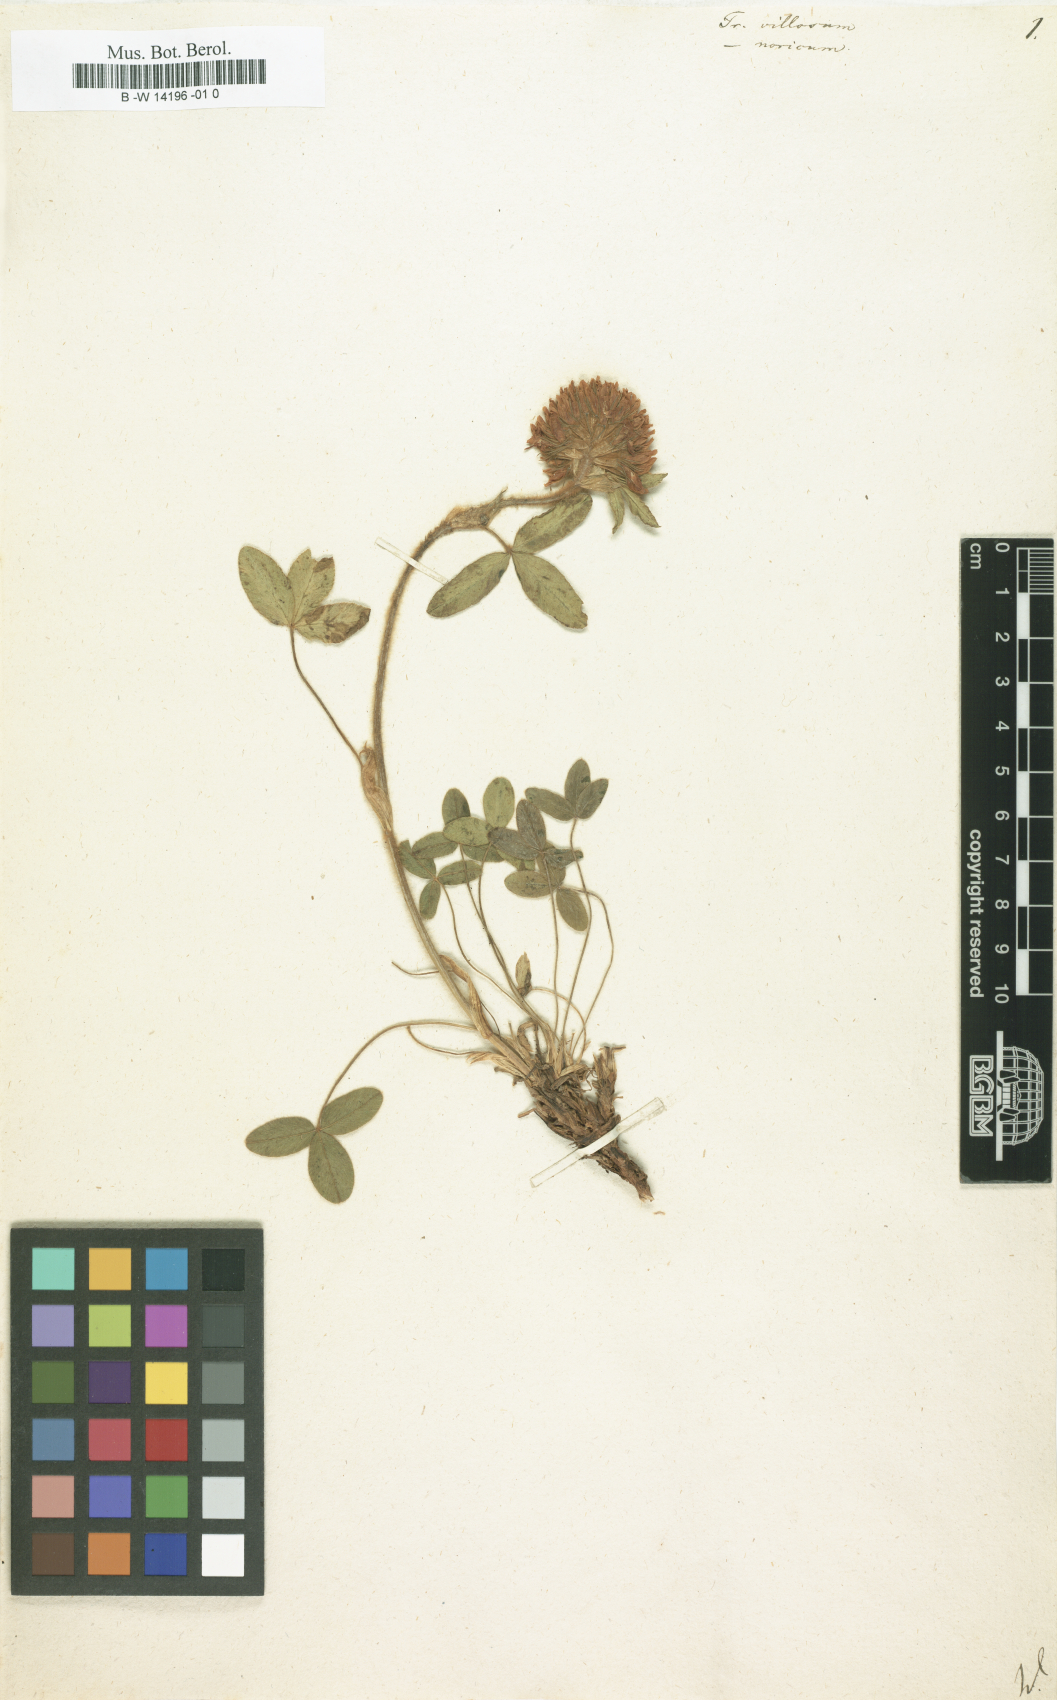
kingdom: Plantae
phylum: Tracheophyta
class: Magnoliopsida
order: Fabales
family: Fabaceae
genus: Trifolium
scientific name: Trifolium
